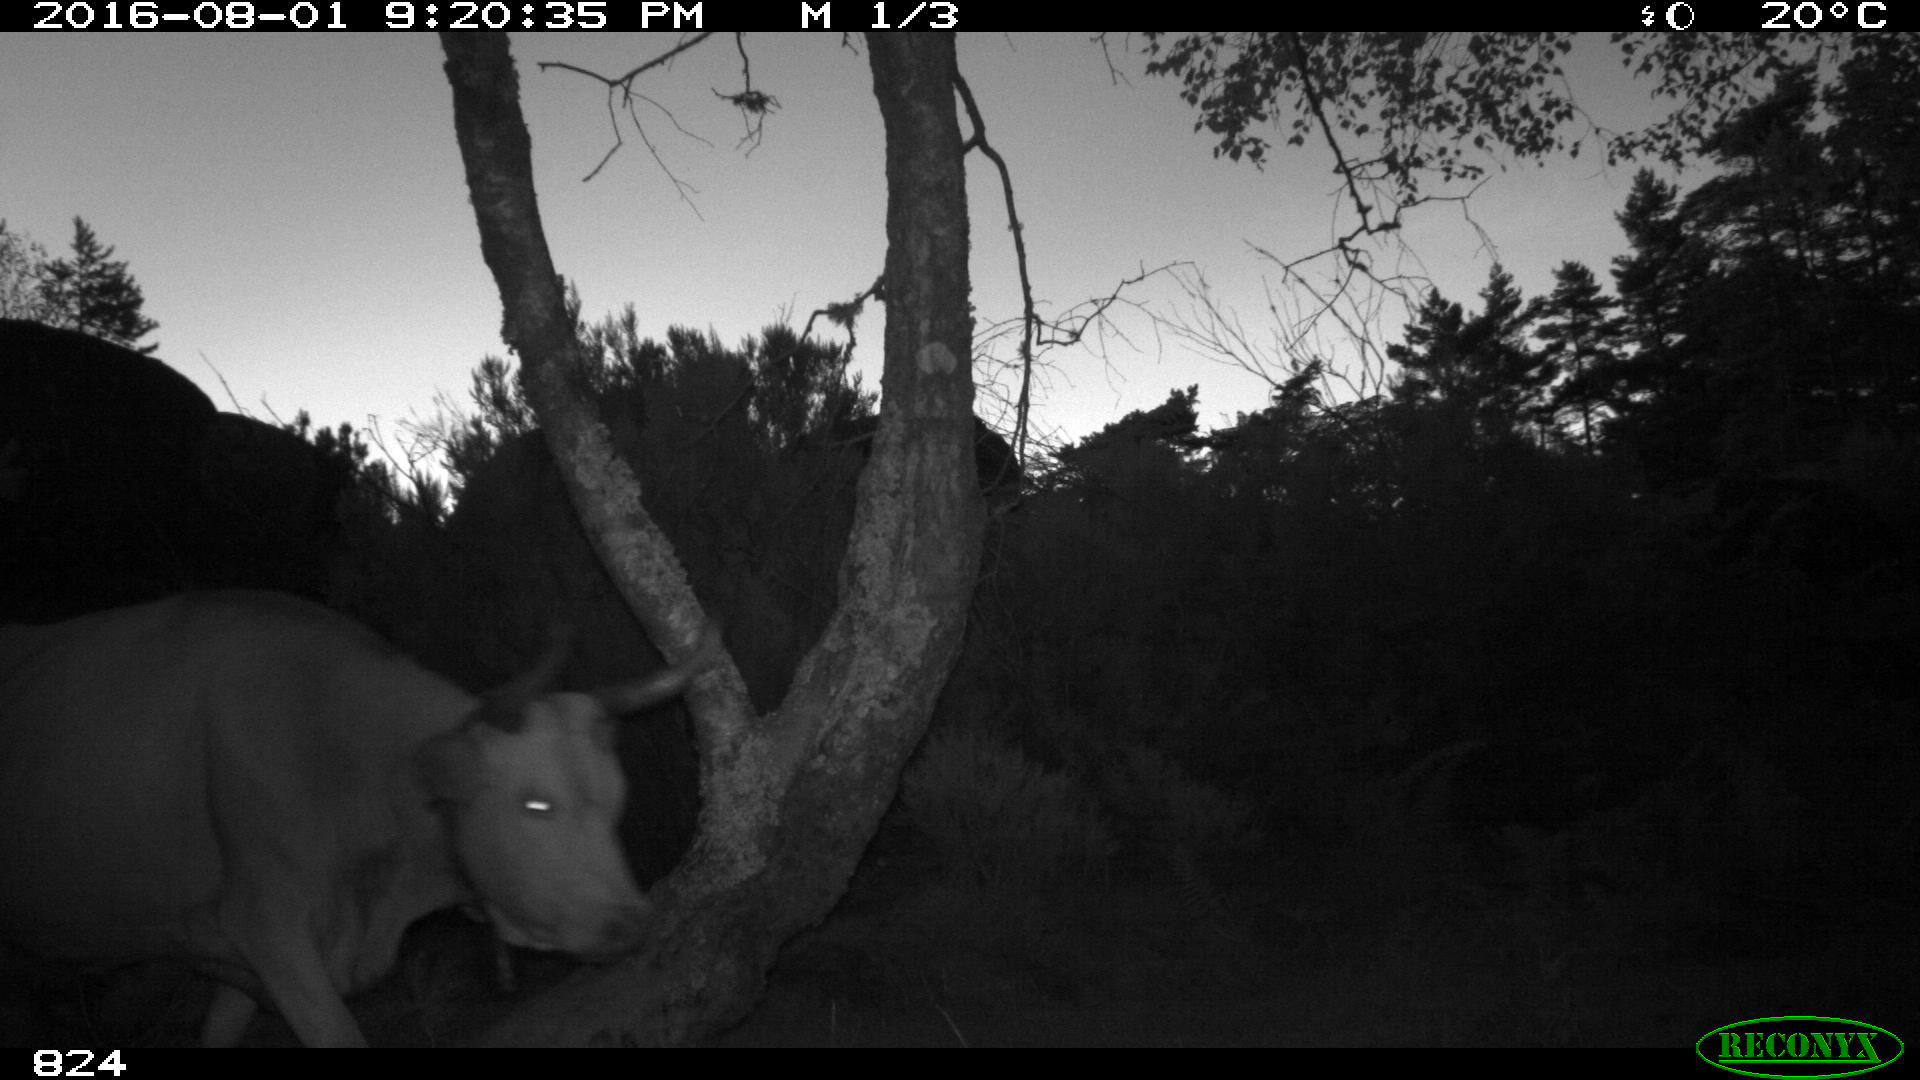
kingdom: Animalia
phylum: Chordata
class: Mammalia
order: Artiodactyla
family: Bovidae
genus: Bos
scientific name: Bos taurus
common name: Domesticated cattle
